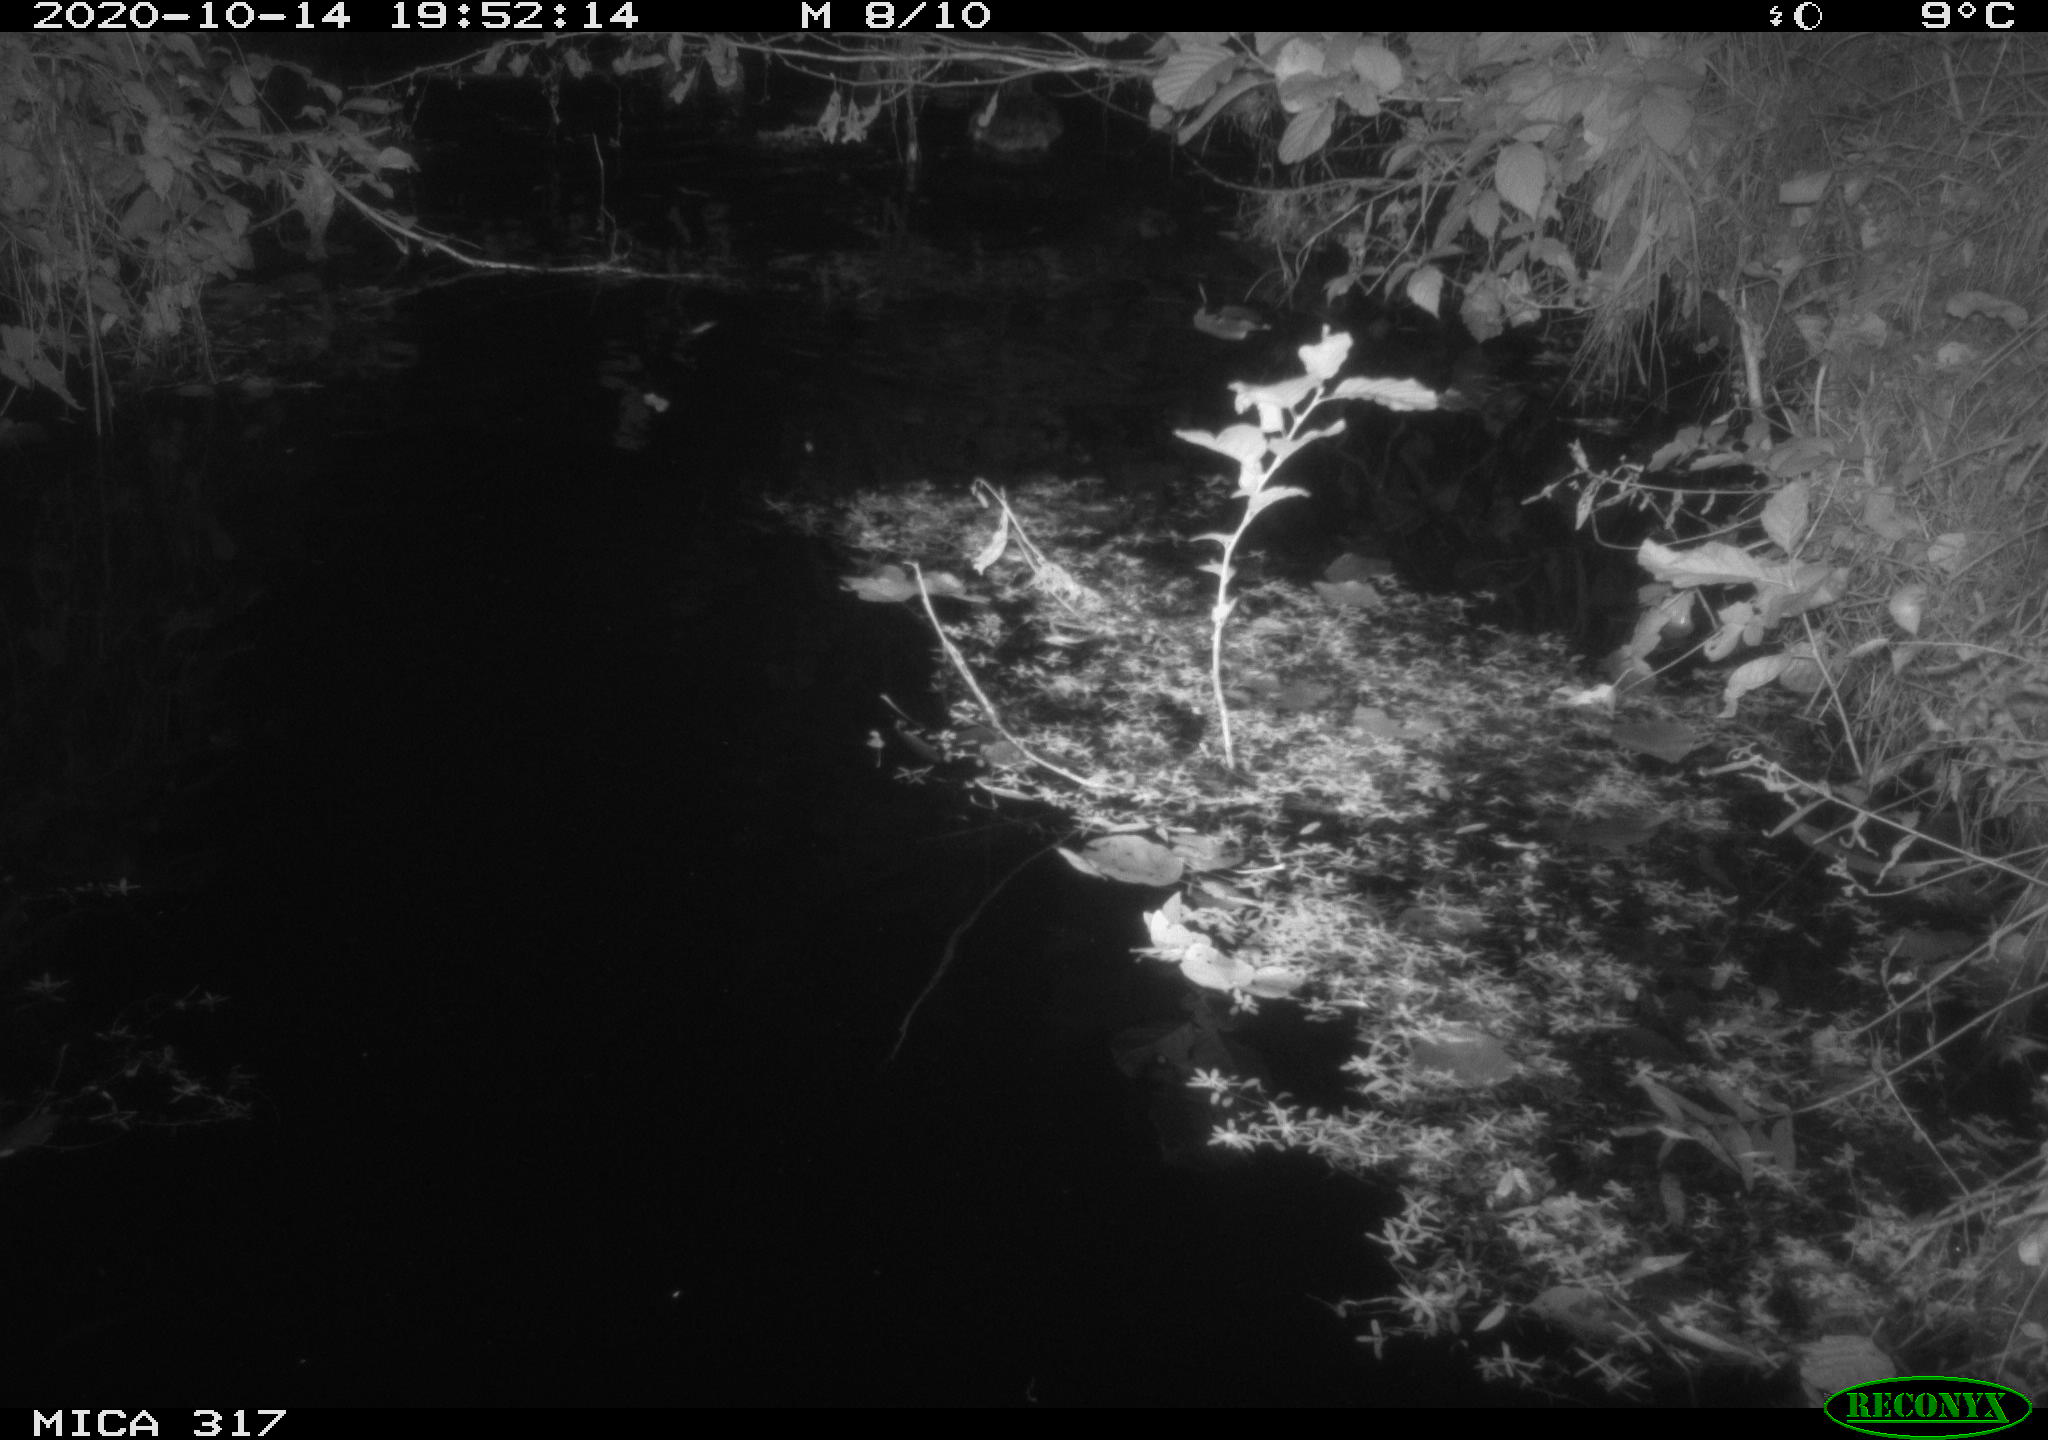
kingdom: Animalia
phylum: Chordata
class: Aves
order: Anseriformes
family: Anatidae
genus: Anas
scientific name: Anas platyrhynchos
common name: Mallard
